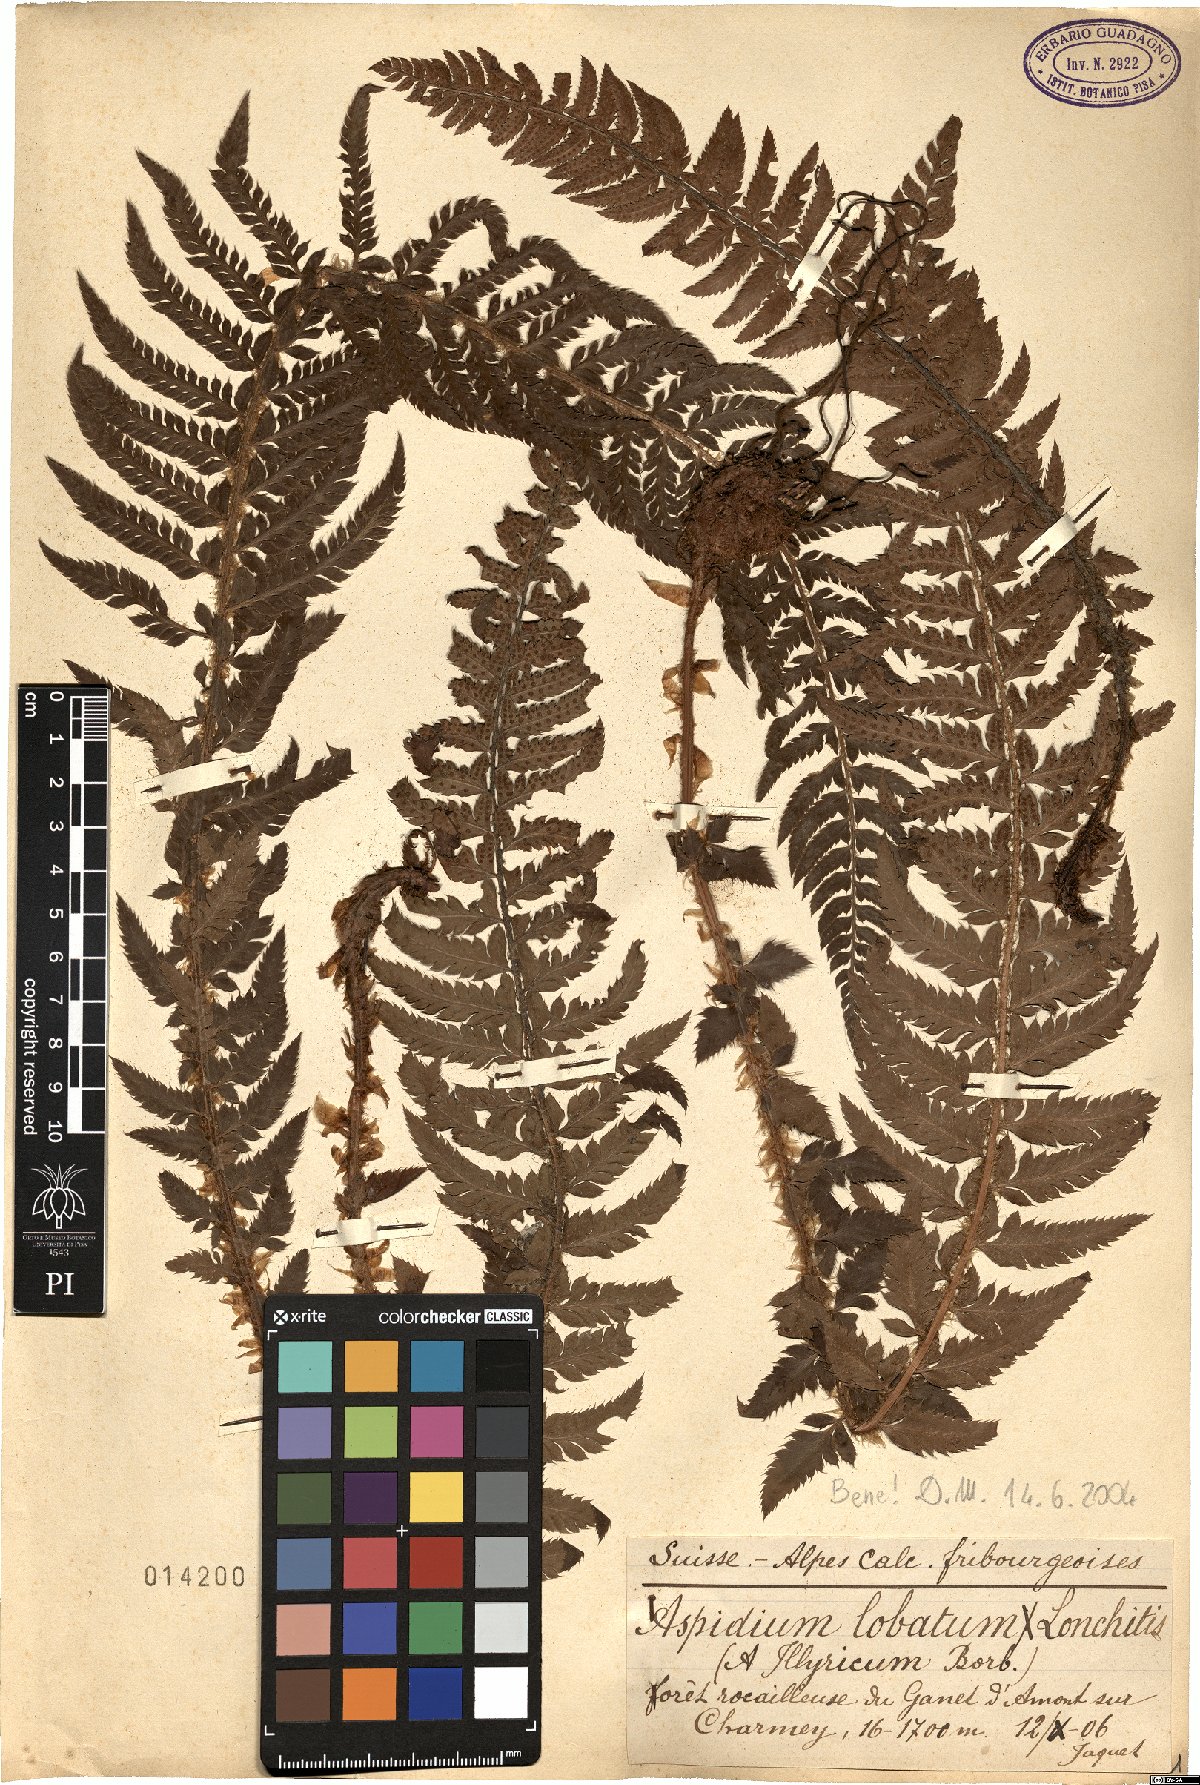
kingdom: Plantae
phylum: Tracheophyta
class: Polypodiopsida
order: Polypodiales
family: Dryopteridaceae
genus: Polystichum
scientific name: Polystichum illyricum
